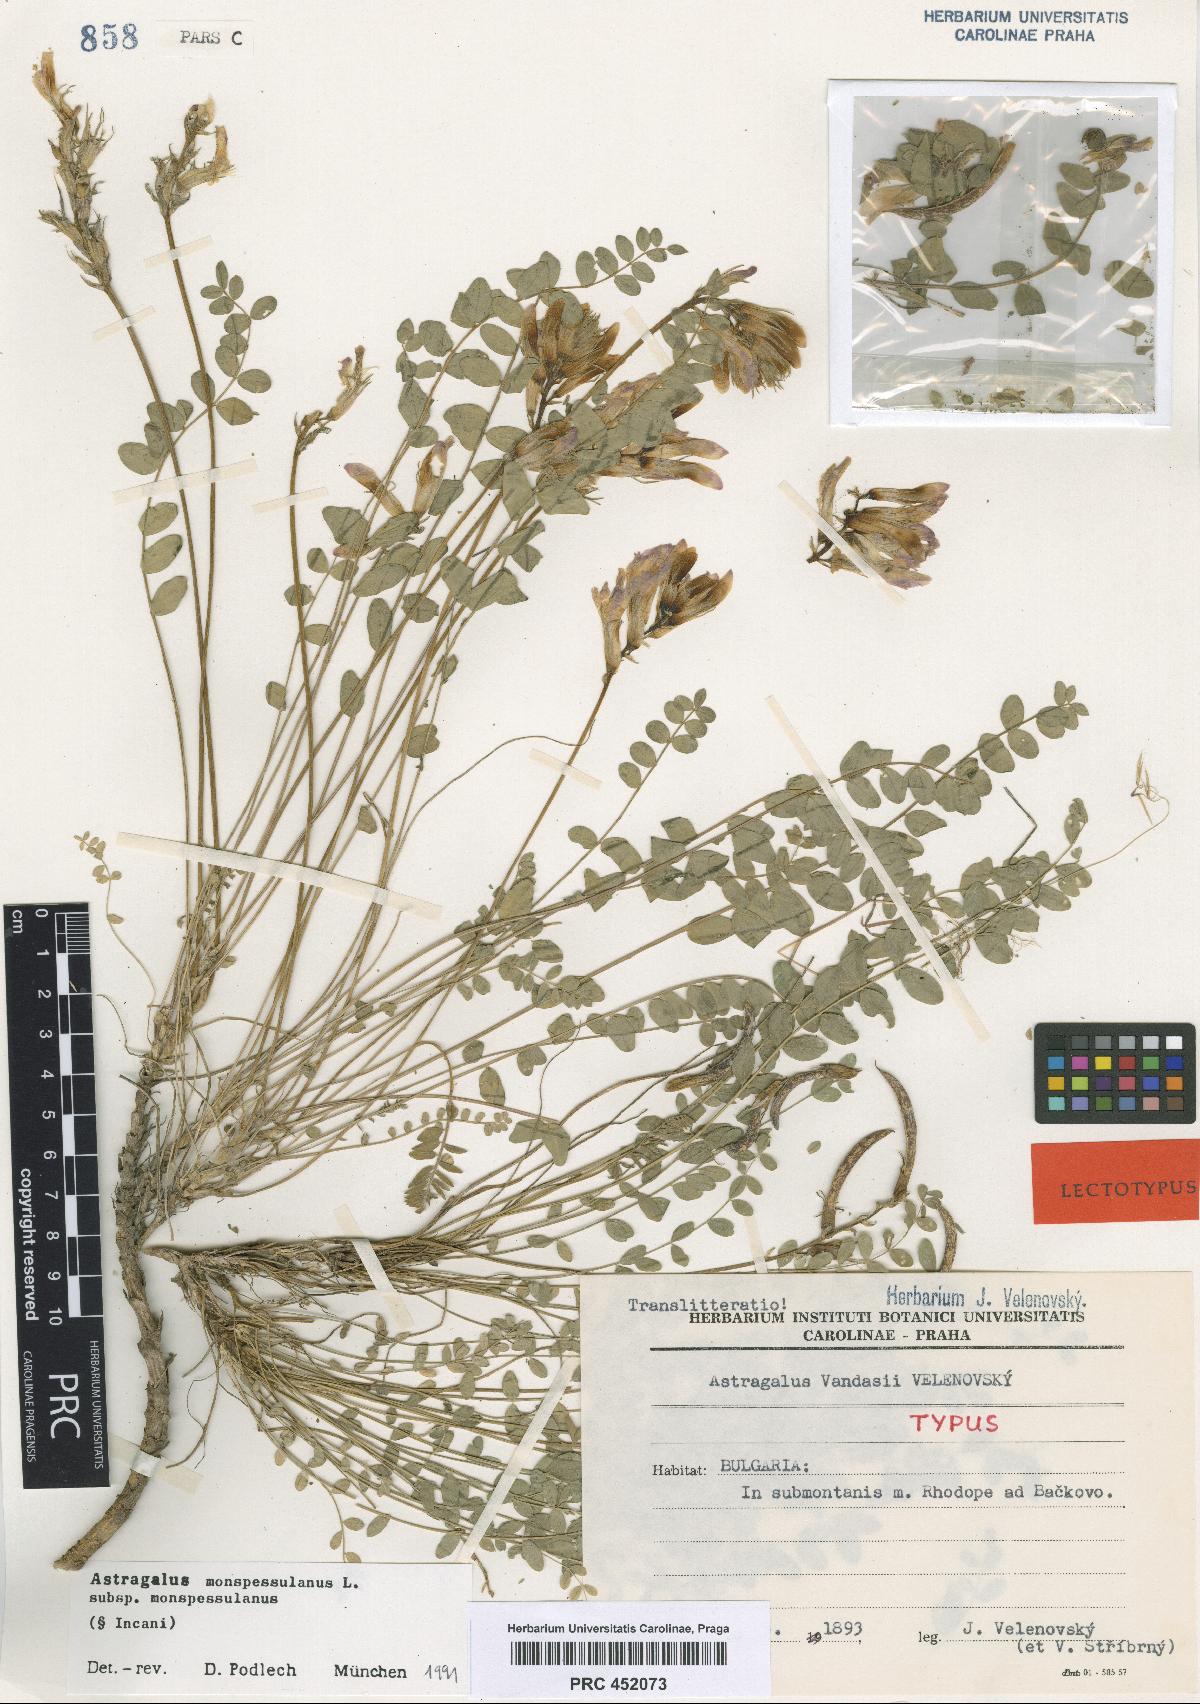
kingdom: Plantae
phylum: Tracheophyta
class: Magnoliopsida
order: Fabales
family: Fabaceae
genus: Astragalus
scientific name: Astragalus monspessulanus
